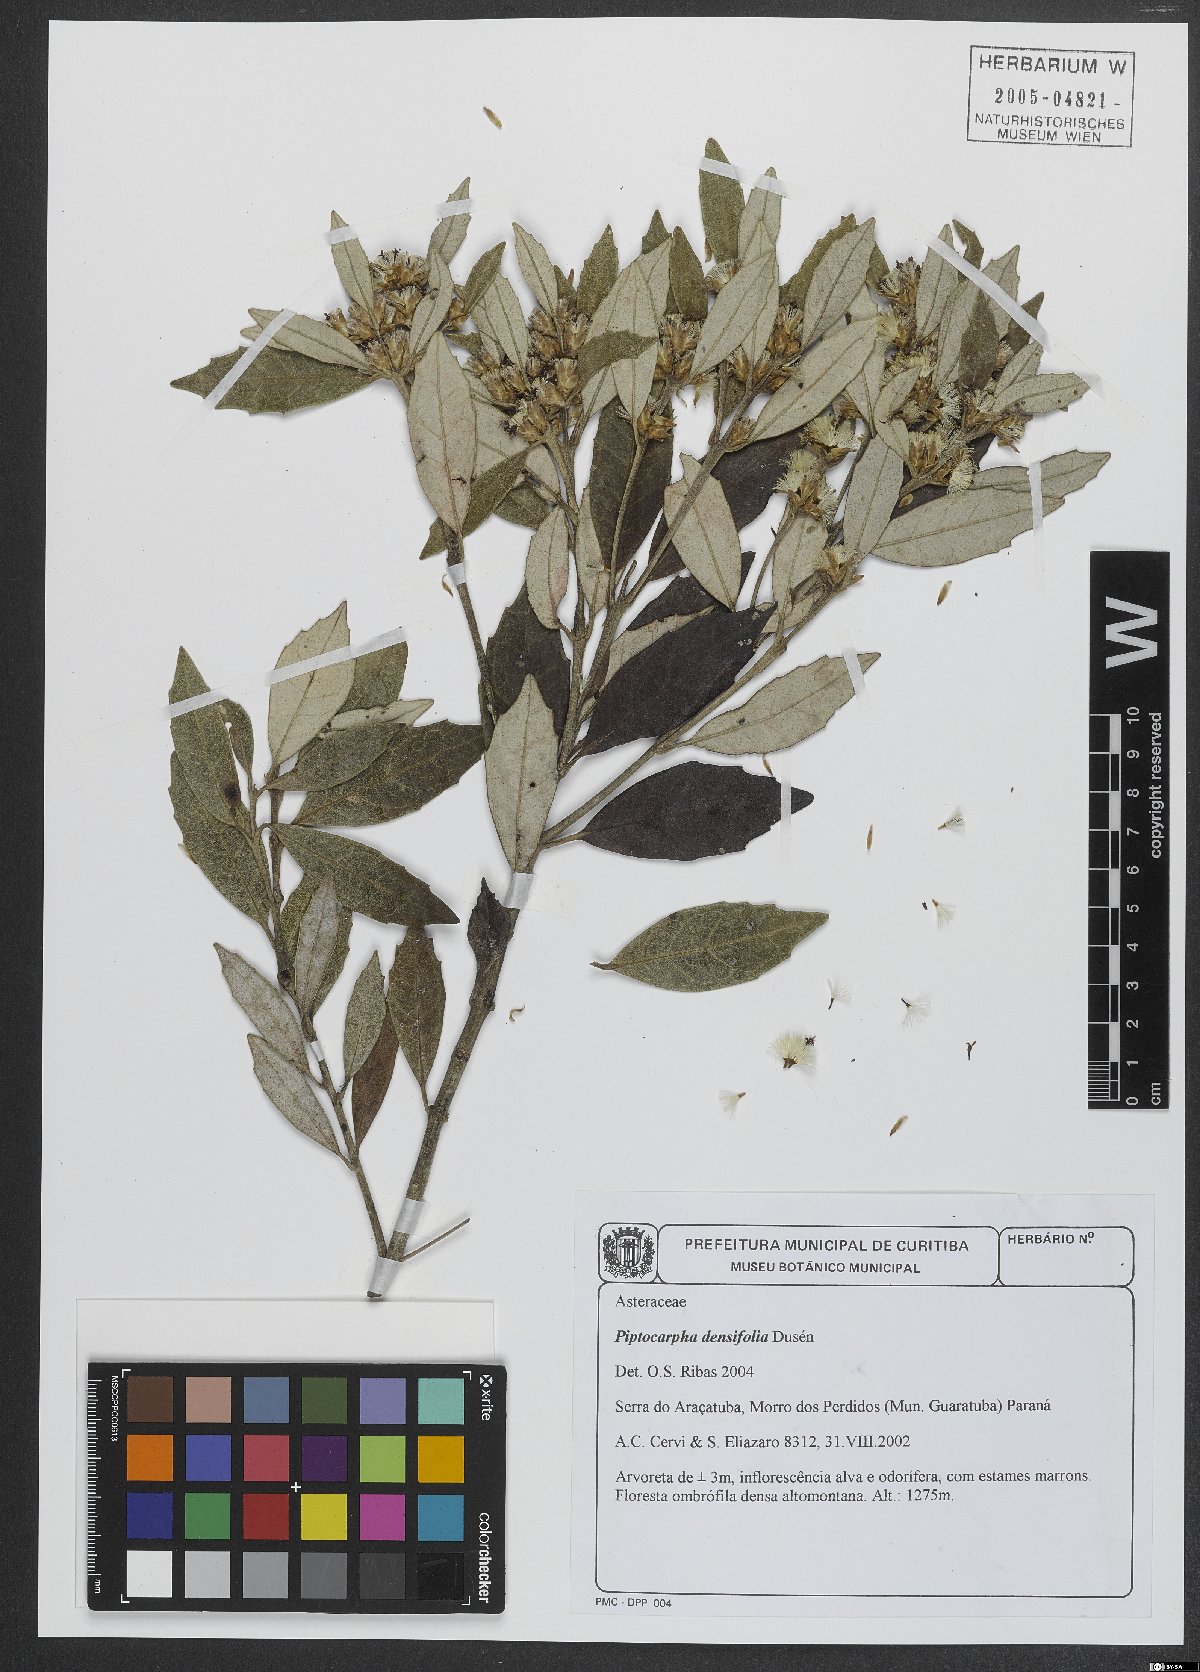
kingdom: Plantae
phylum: Tracheophyta
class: Magnoliopsida
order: Asterales
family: Asteraceae
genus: Piptocarpha
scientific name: Piptocarpha densifolia
